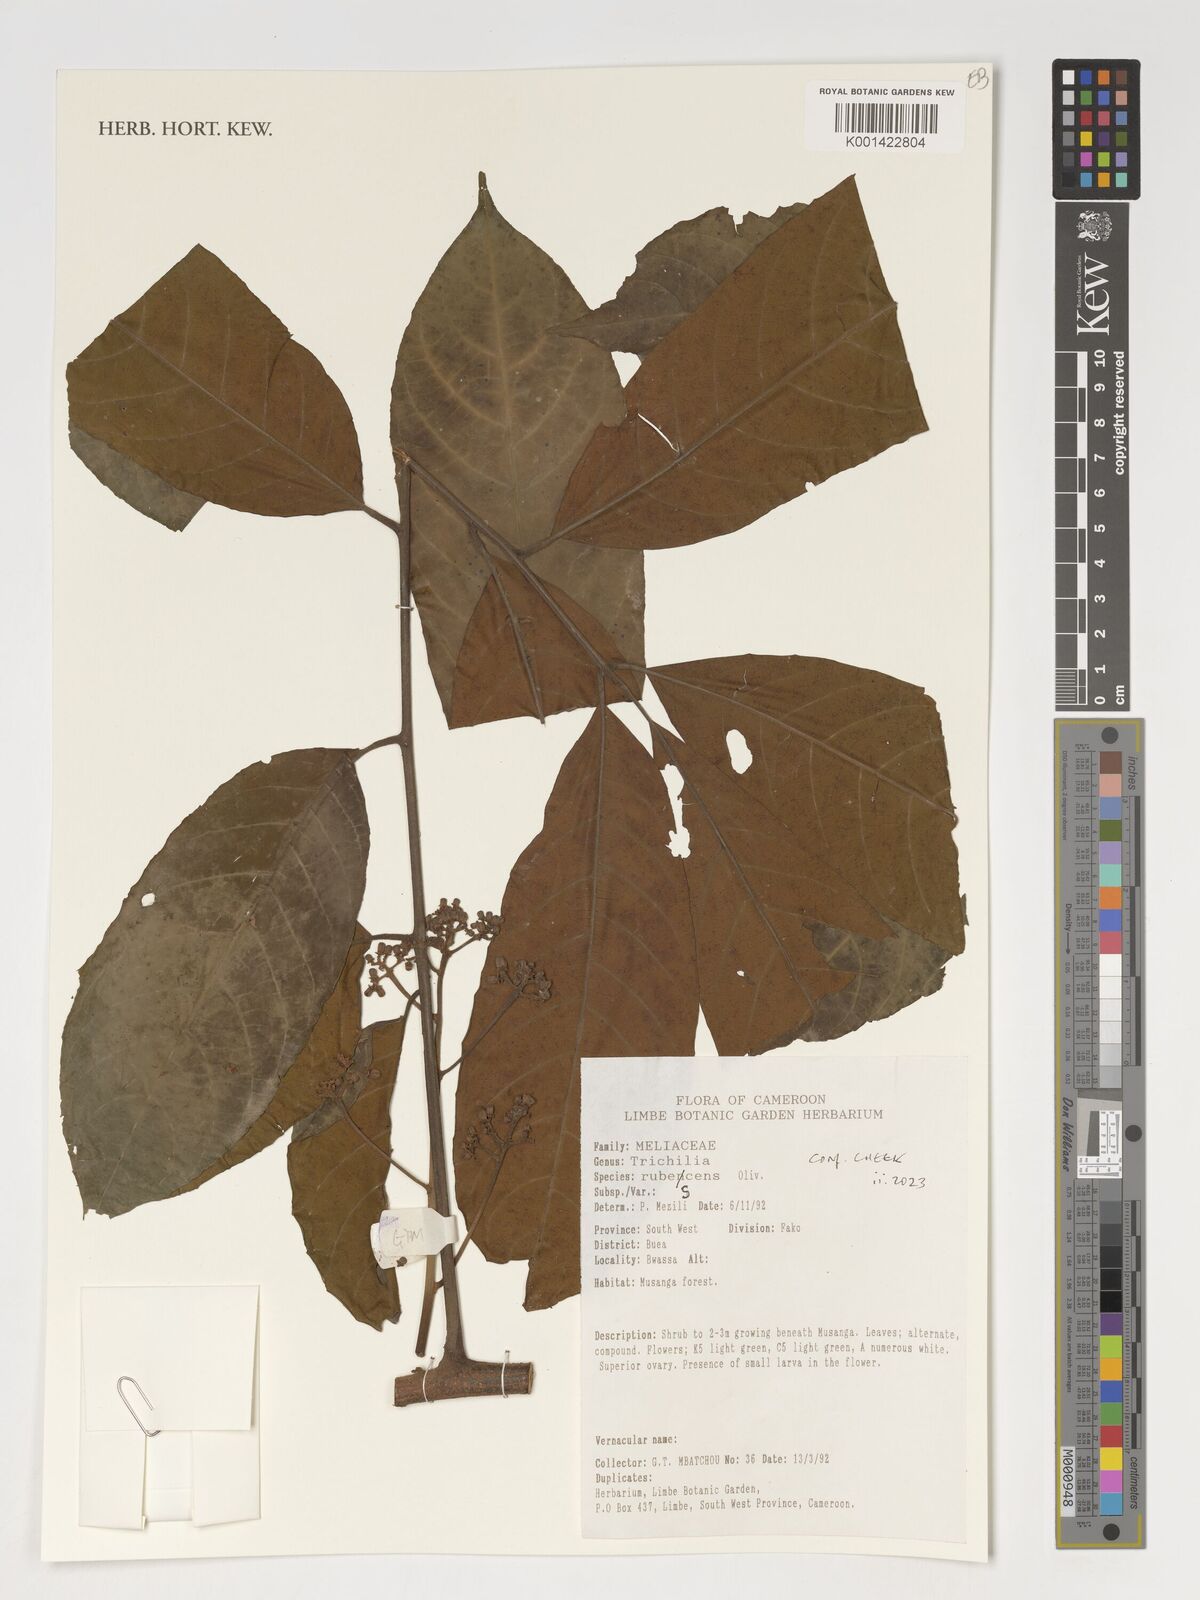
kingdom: Plantae
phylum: Tracheophyta
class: Magnoliopsida
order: Sapindales
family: Meliaceae
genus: Trichilia
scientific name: Trichilia rubescens
